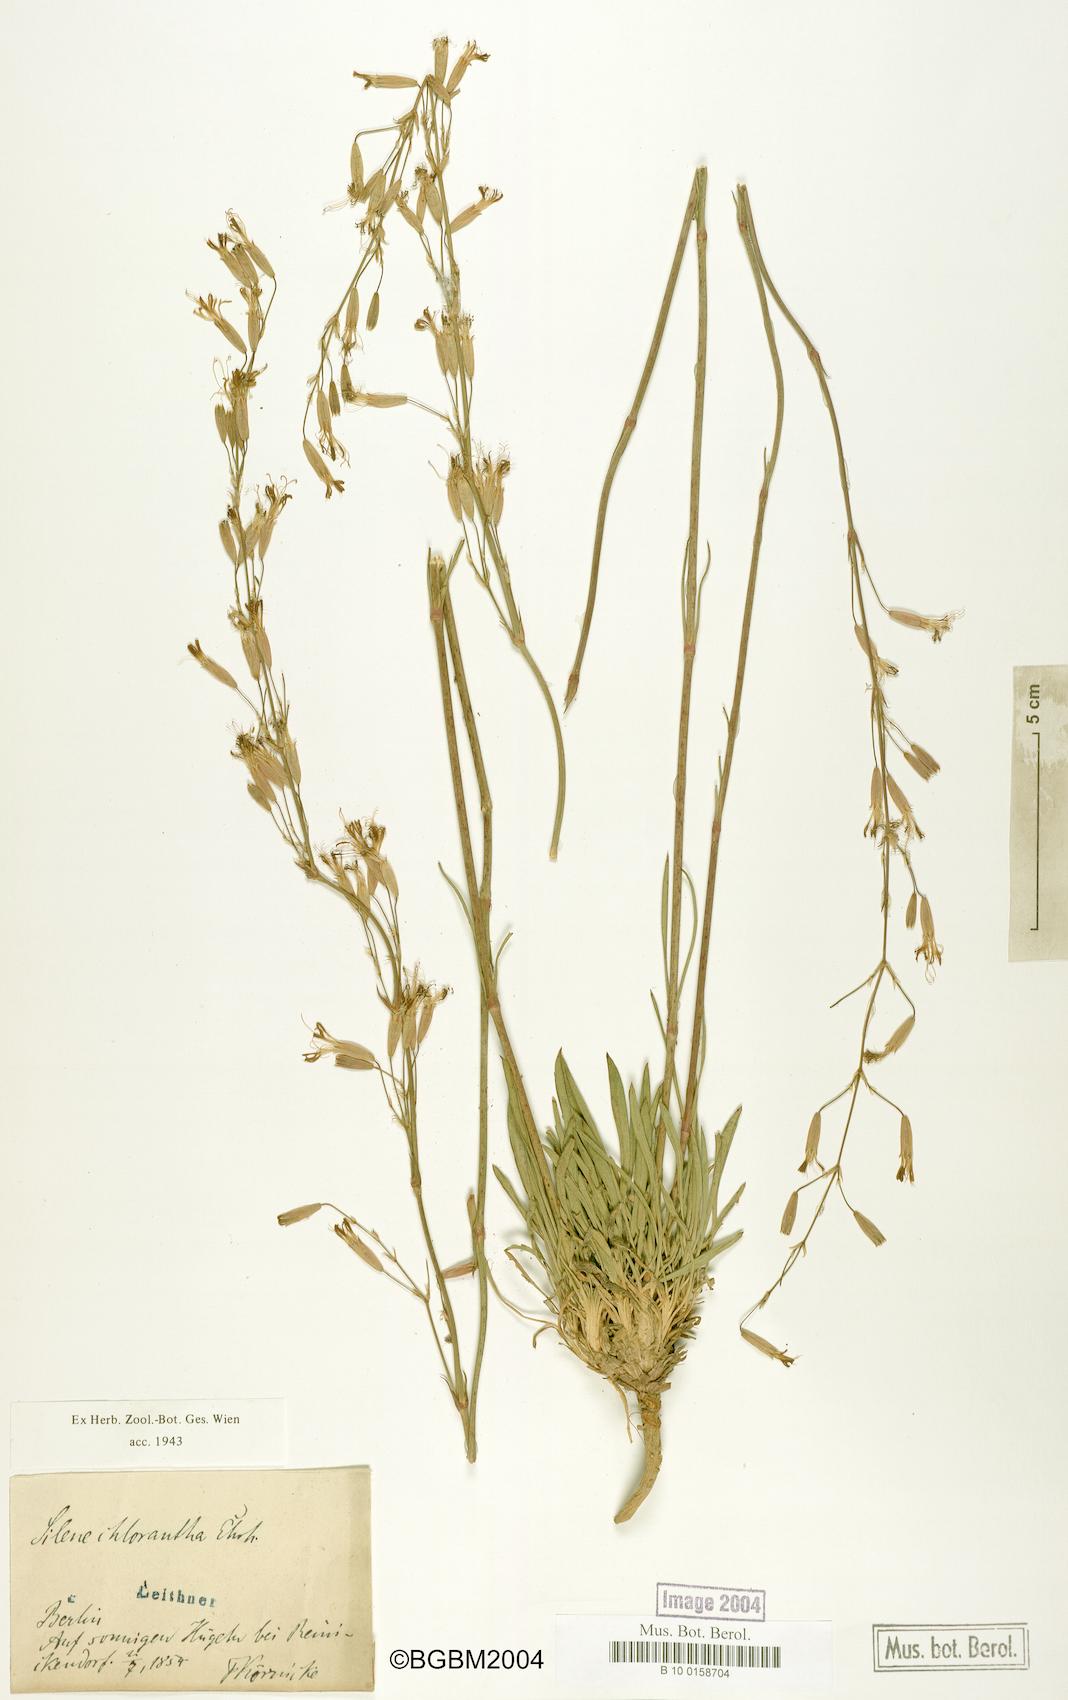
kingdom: Plantae
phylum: Tracheophyta
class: Magnoliopsida
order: Caryophyllales
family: Caryophyllaceae
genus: Silene
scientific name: Silene chlorantha
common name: Yellowgreen catchfly
